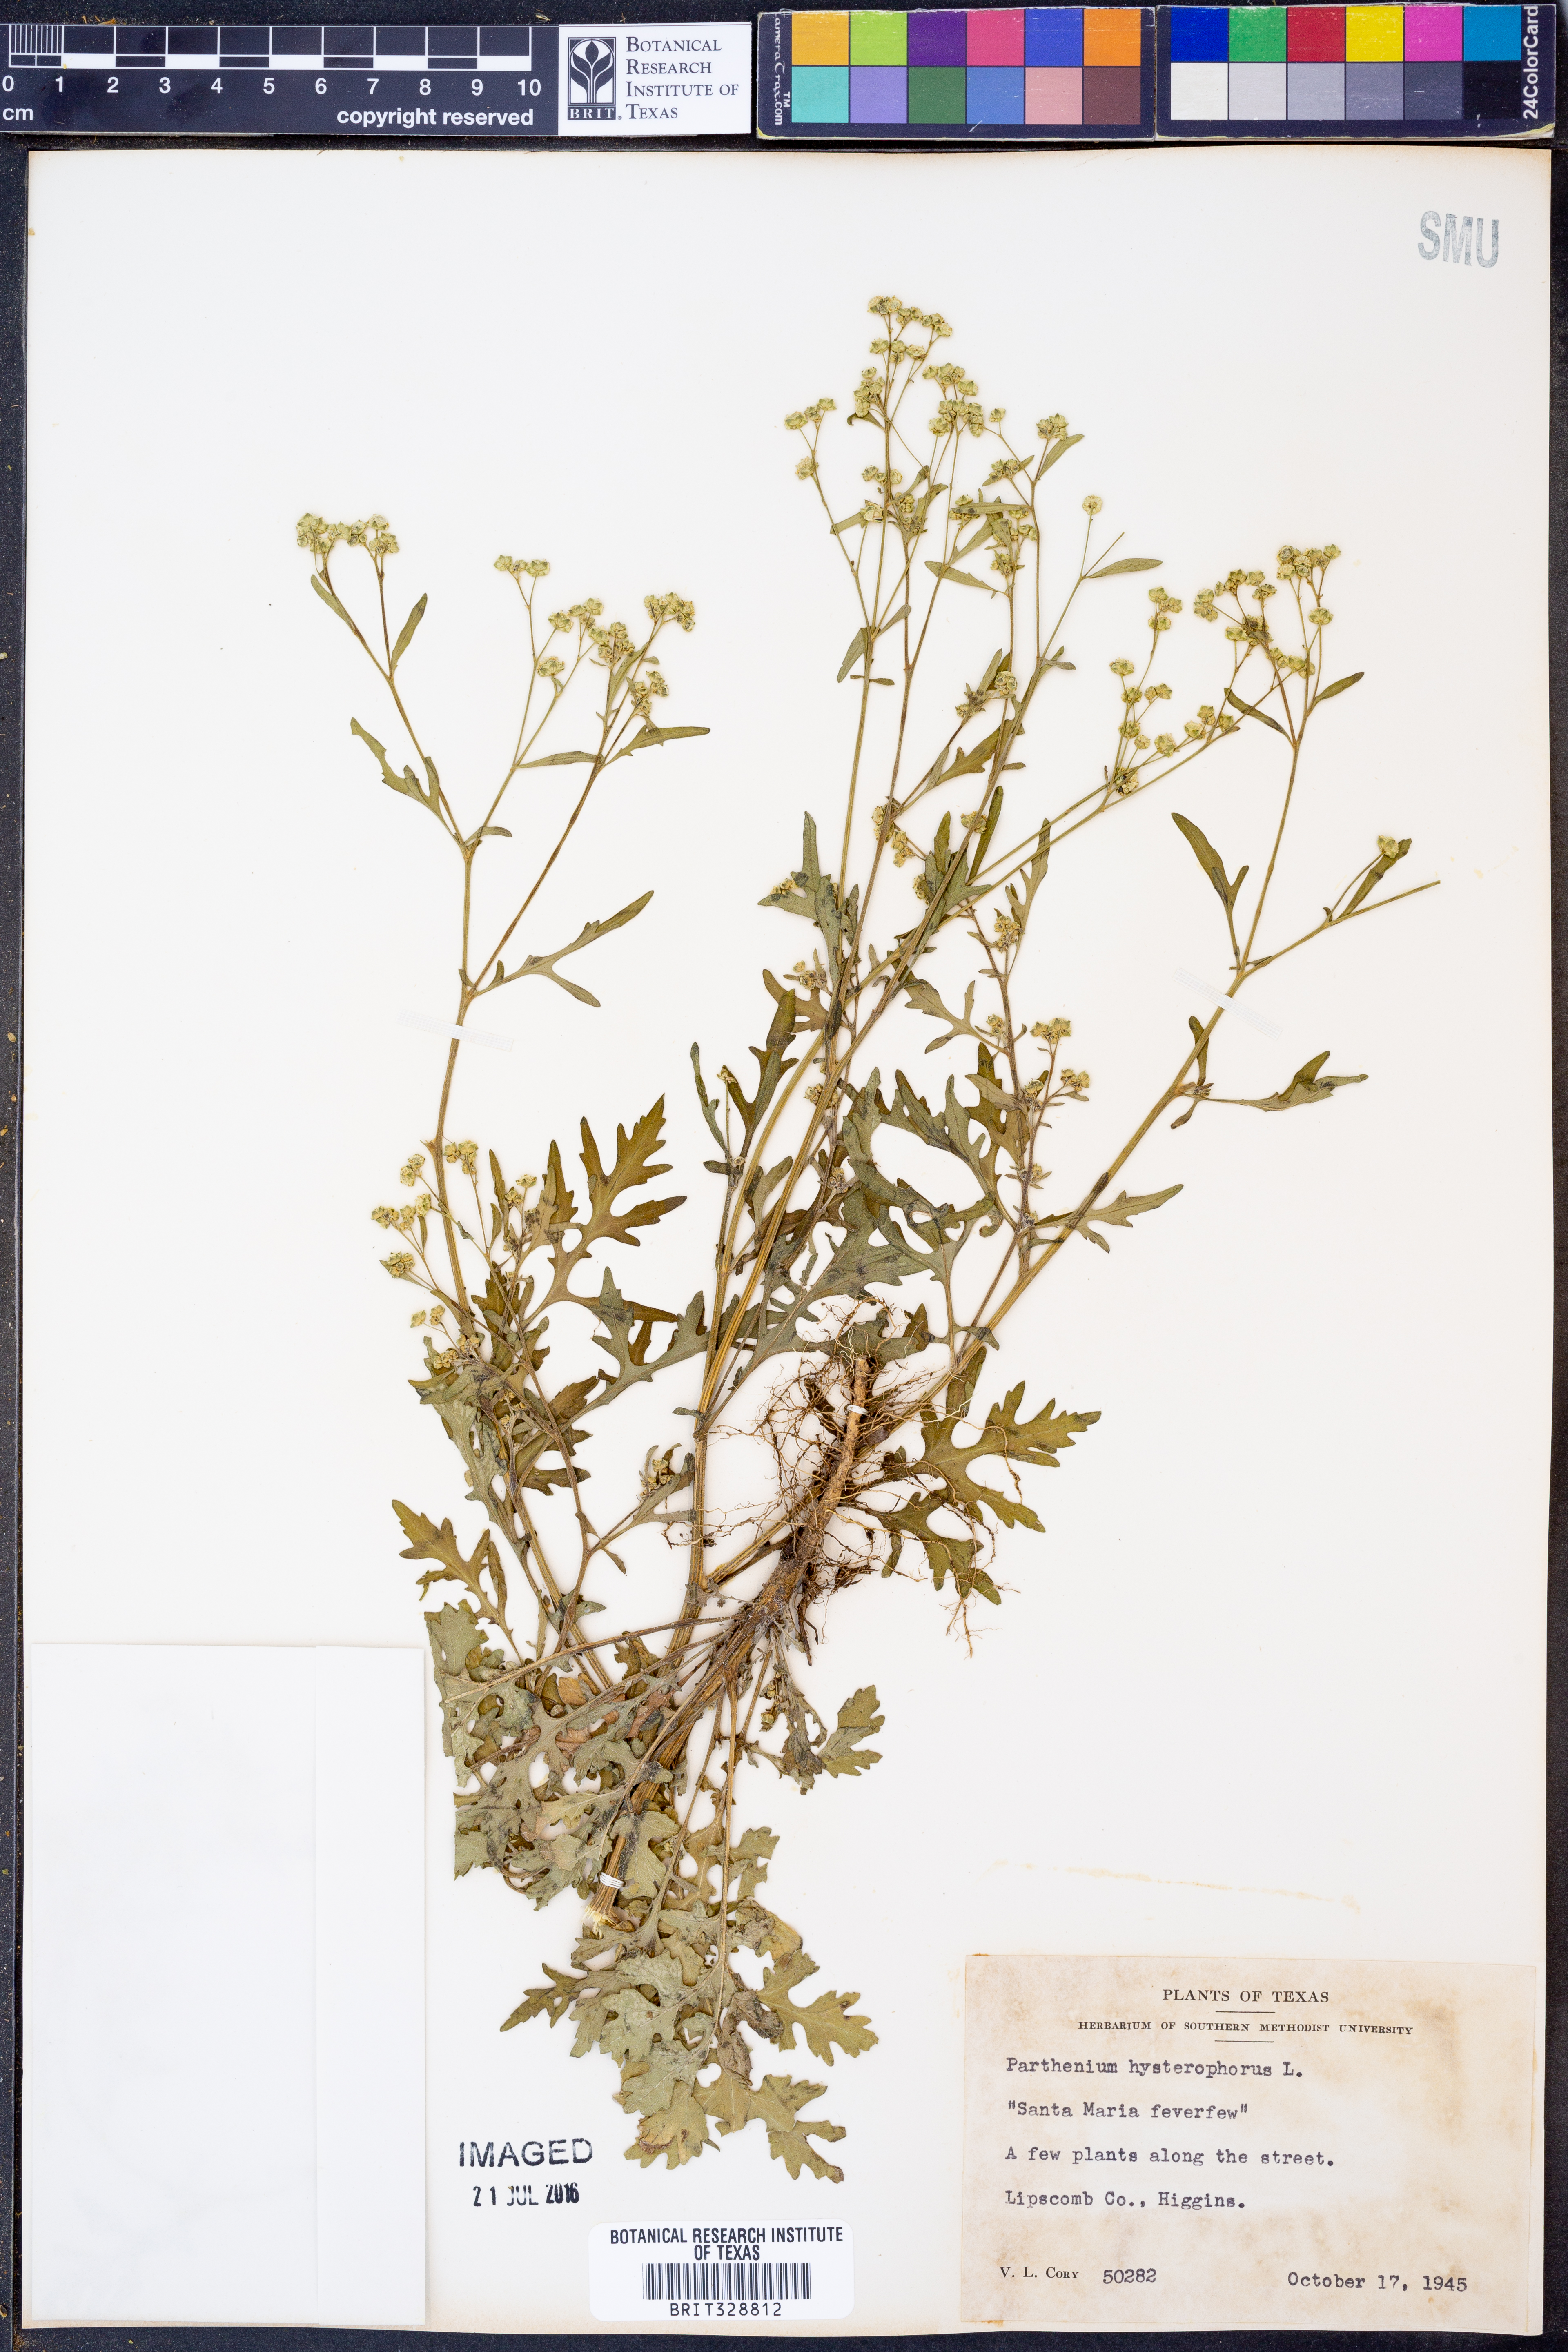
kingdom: Plantae
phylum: Tracheophyta
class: Magnoliopsida
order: Asterales
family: Asteraceae
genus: Parthenium
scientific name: Parthenium hysterophorus
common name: Santa maria feverfew
